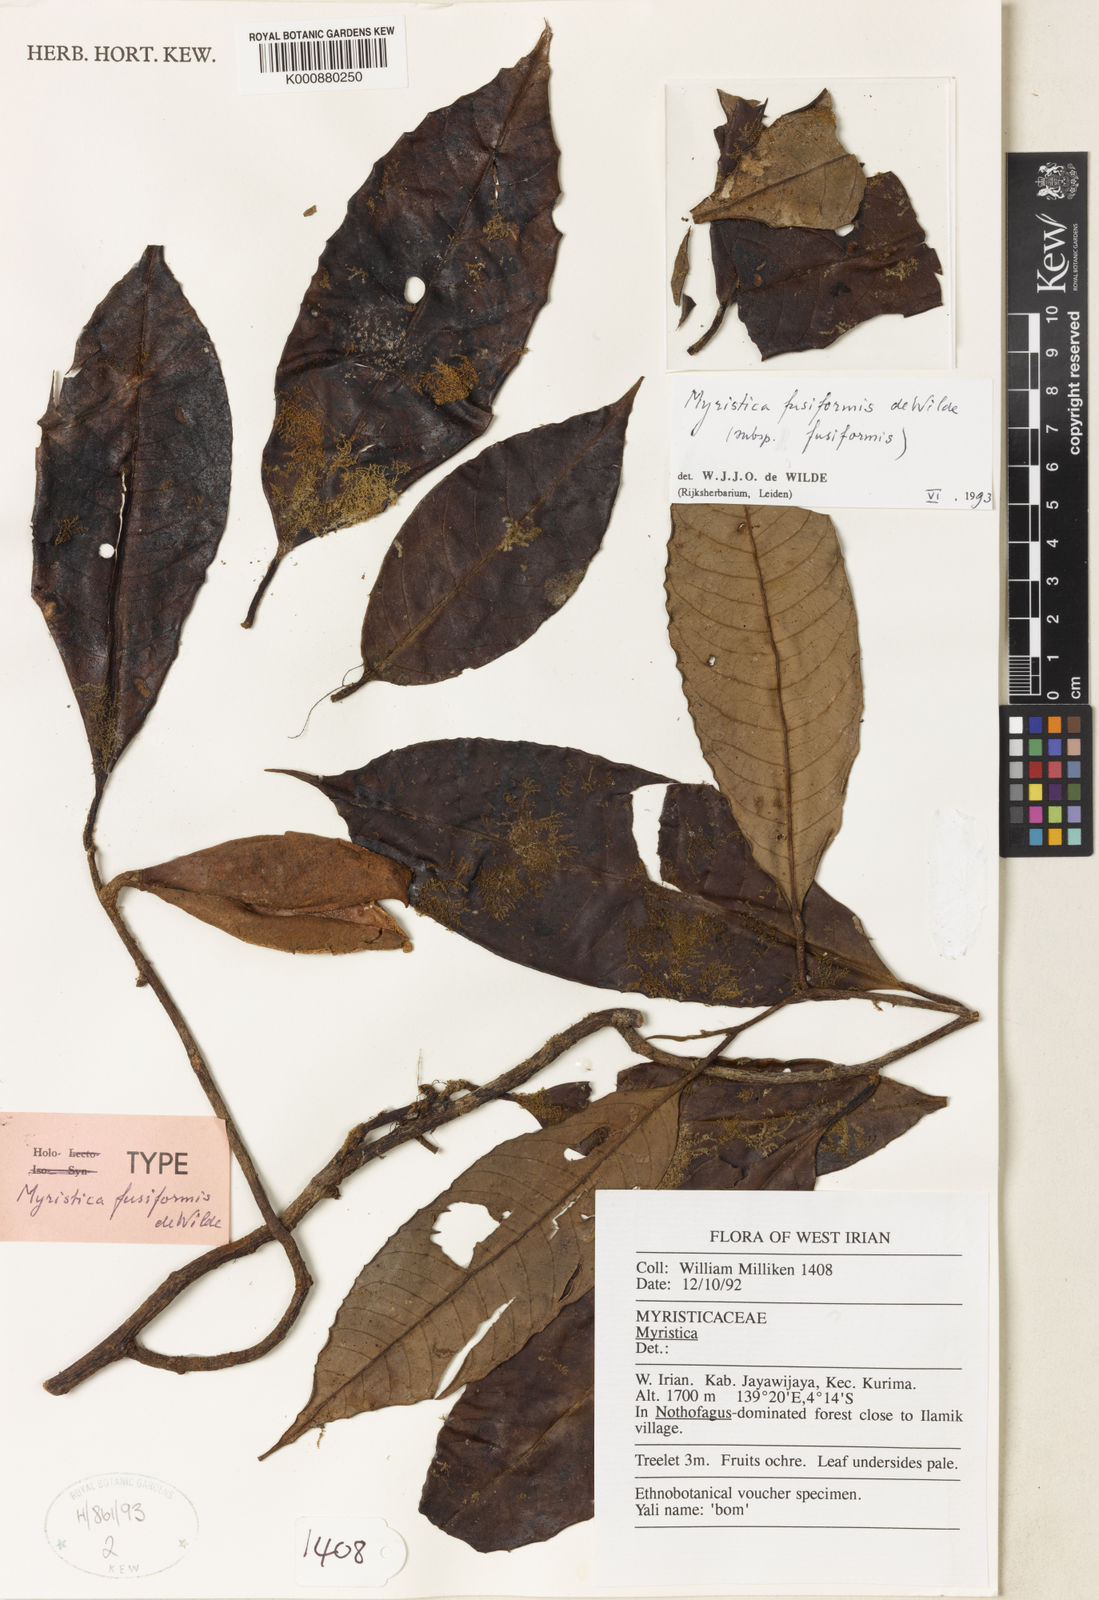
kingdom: Plantae
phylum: Tracheophyta
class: Magnoliopsida
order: Magnoliales
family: Myristicaceae
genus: Myristica
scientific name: Myristica fusiformis
